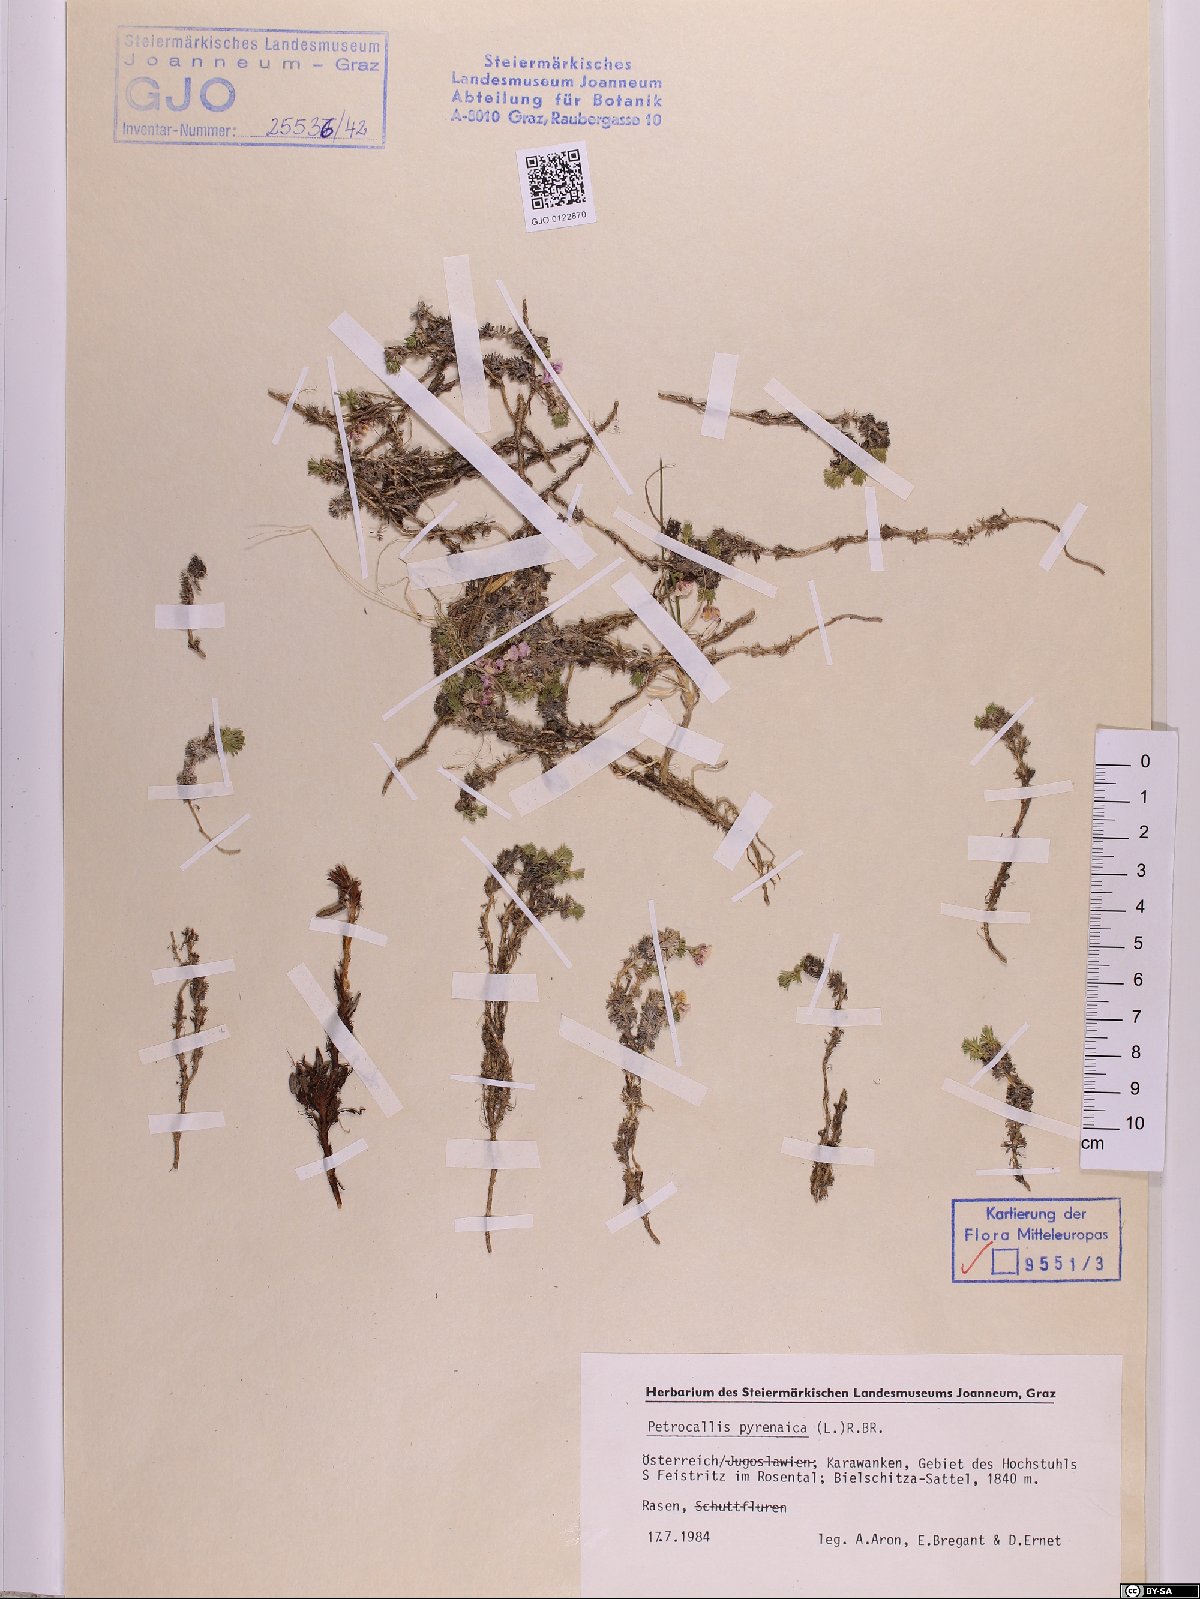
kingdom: Plantae
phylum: Tracheophyta
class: Magnoliopsida
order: Brassicales
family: Brassicaceae
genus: Petrocallis
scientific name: Petrocallis pyrenaica
